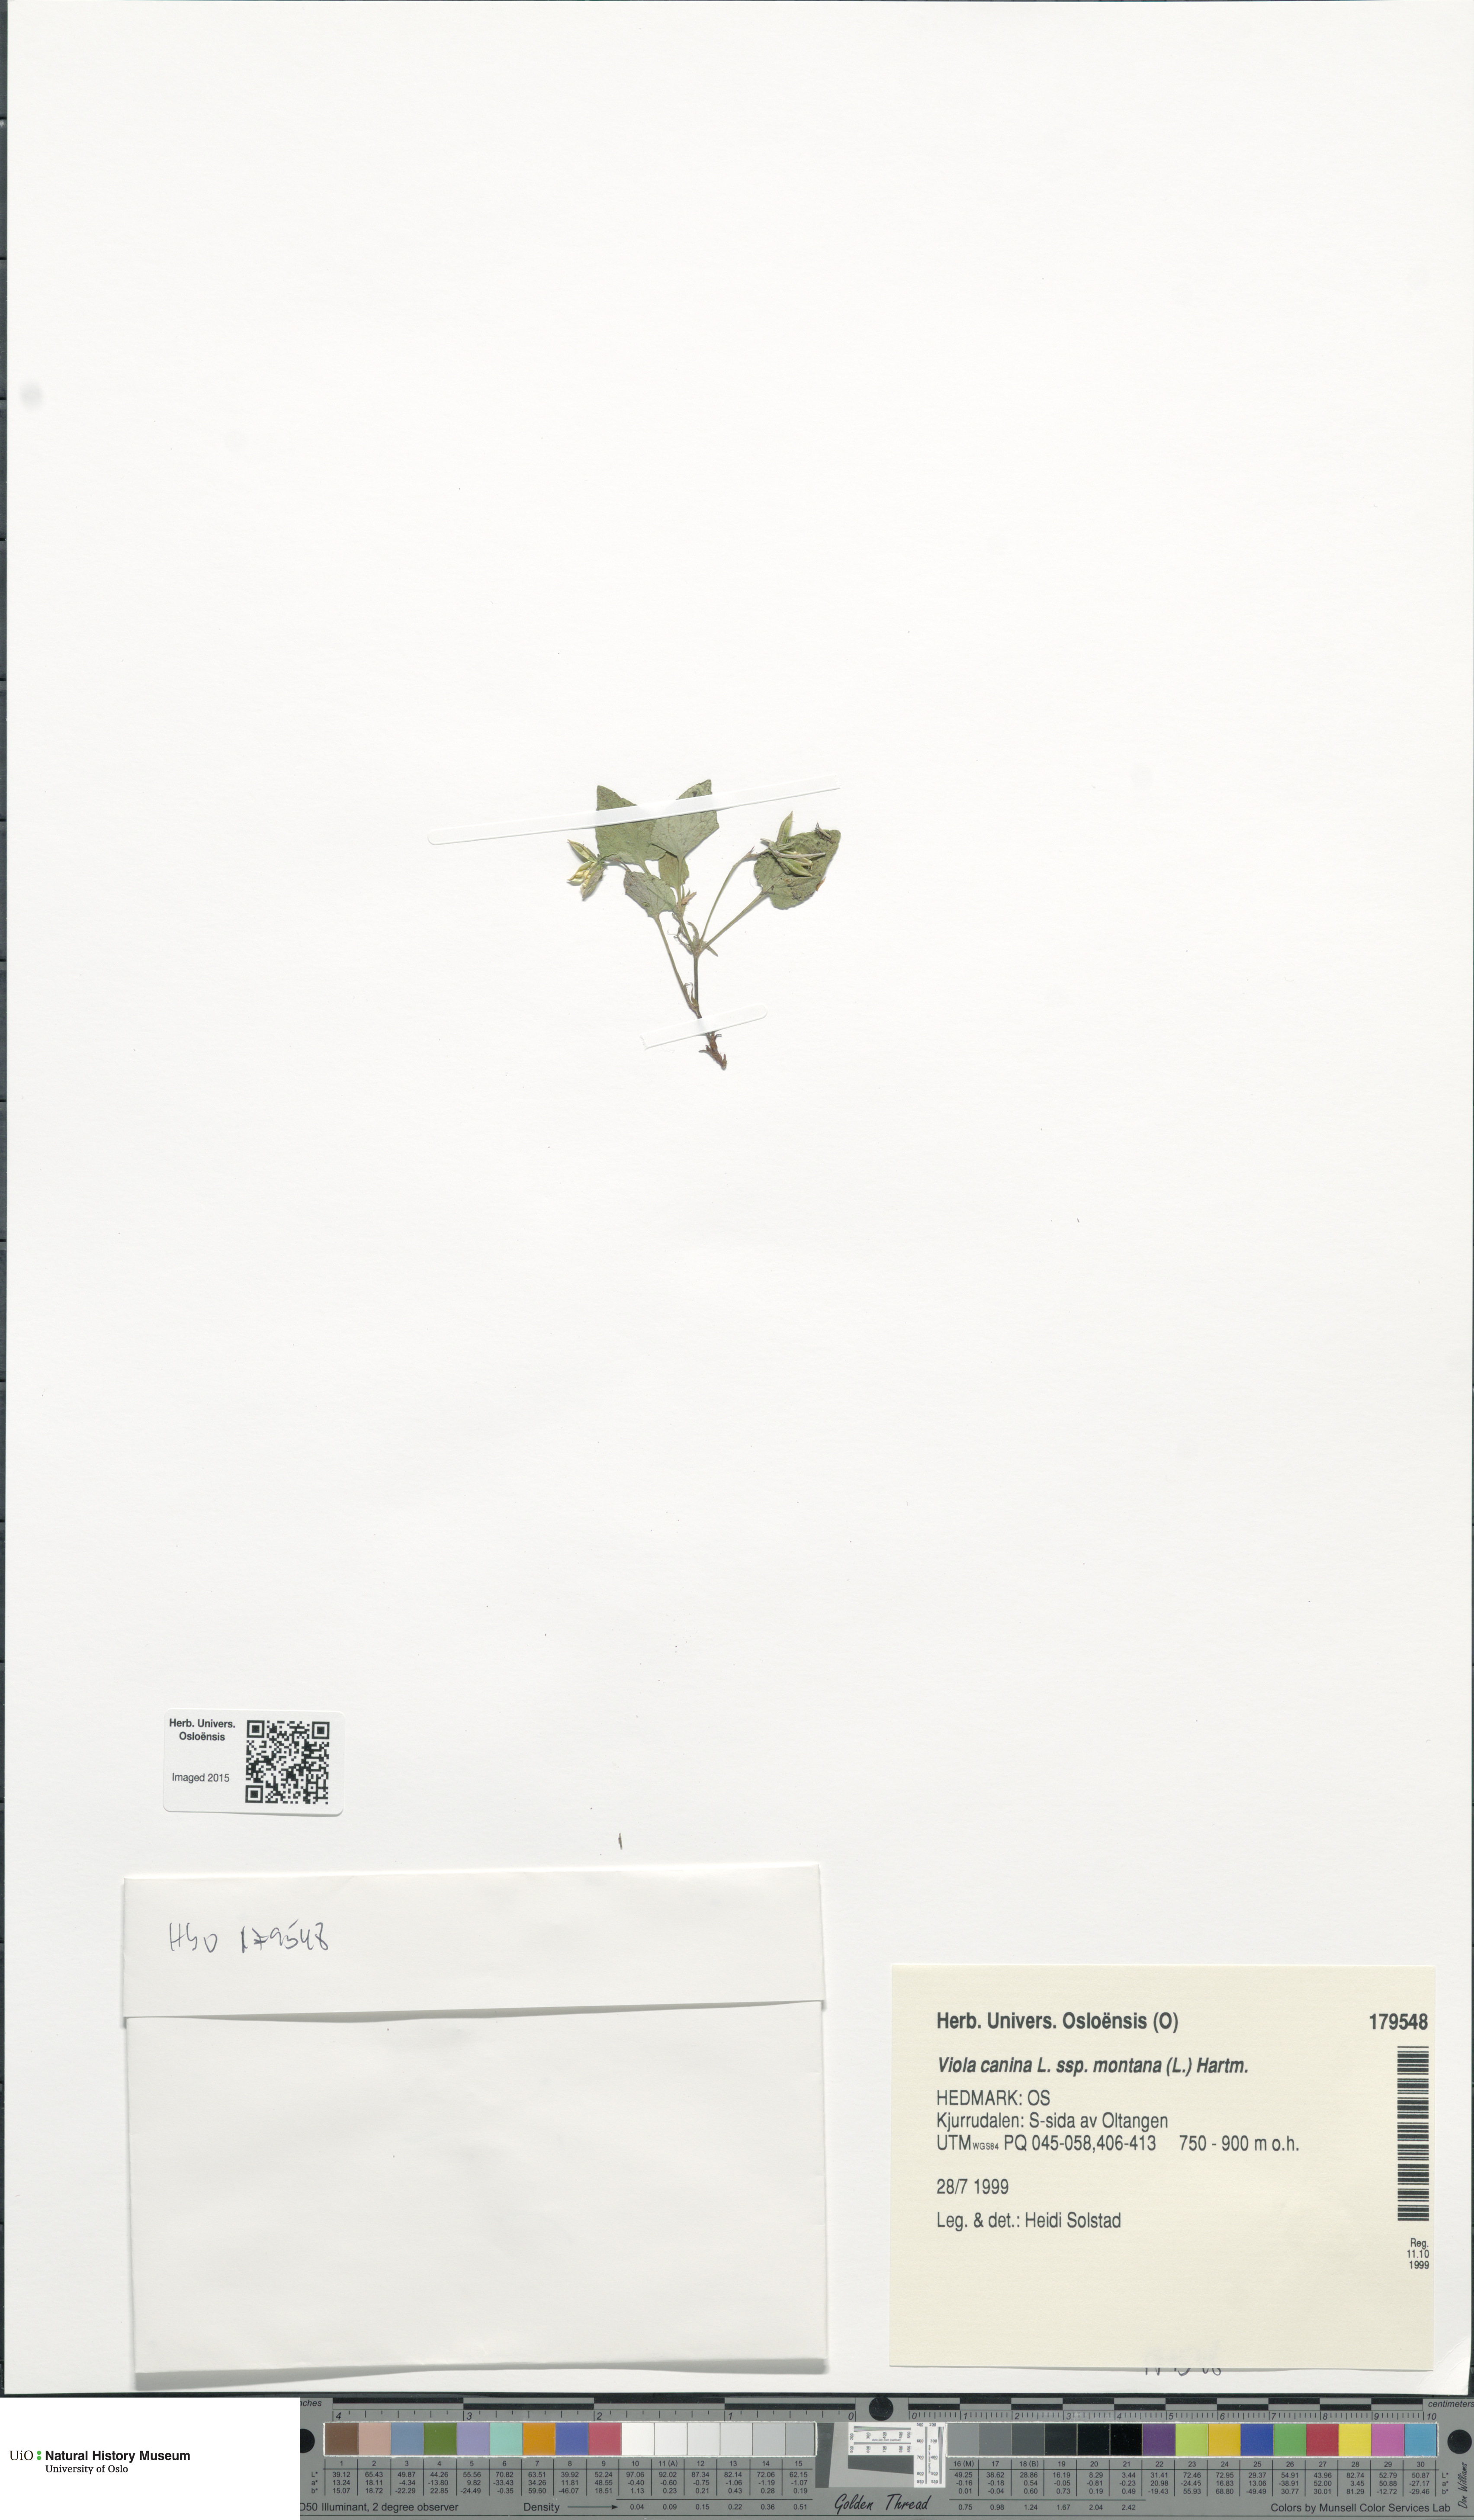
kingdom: Plantae
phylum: Tracheophyta
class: Magnoliopsida
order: Malpighiales
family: Violaceae
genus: Viola
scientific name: Viola ruppii
